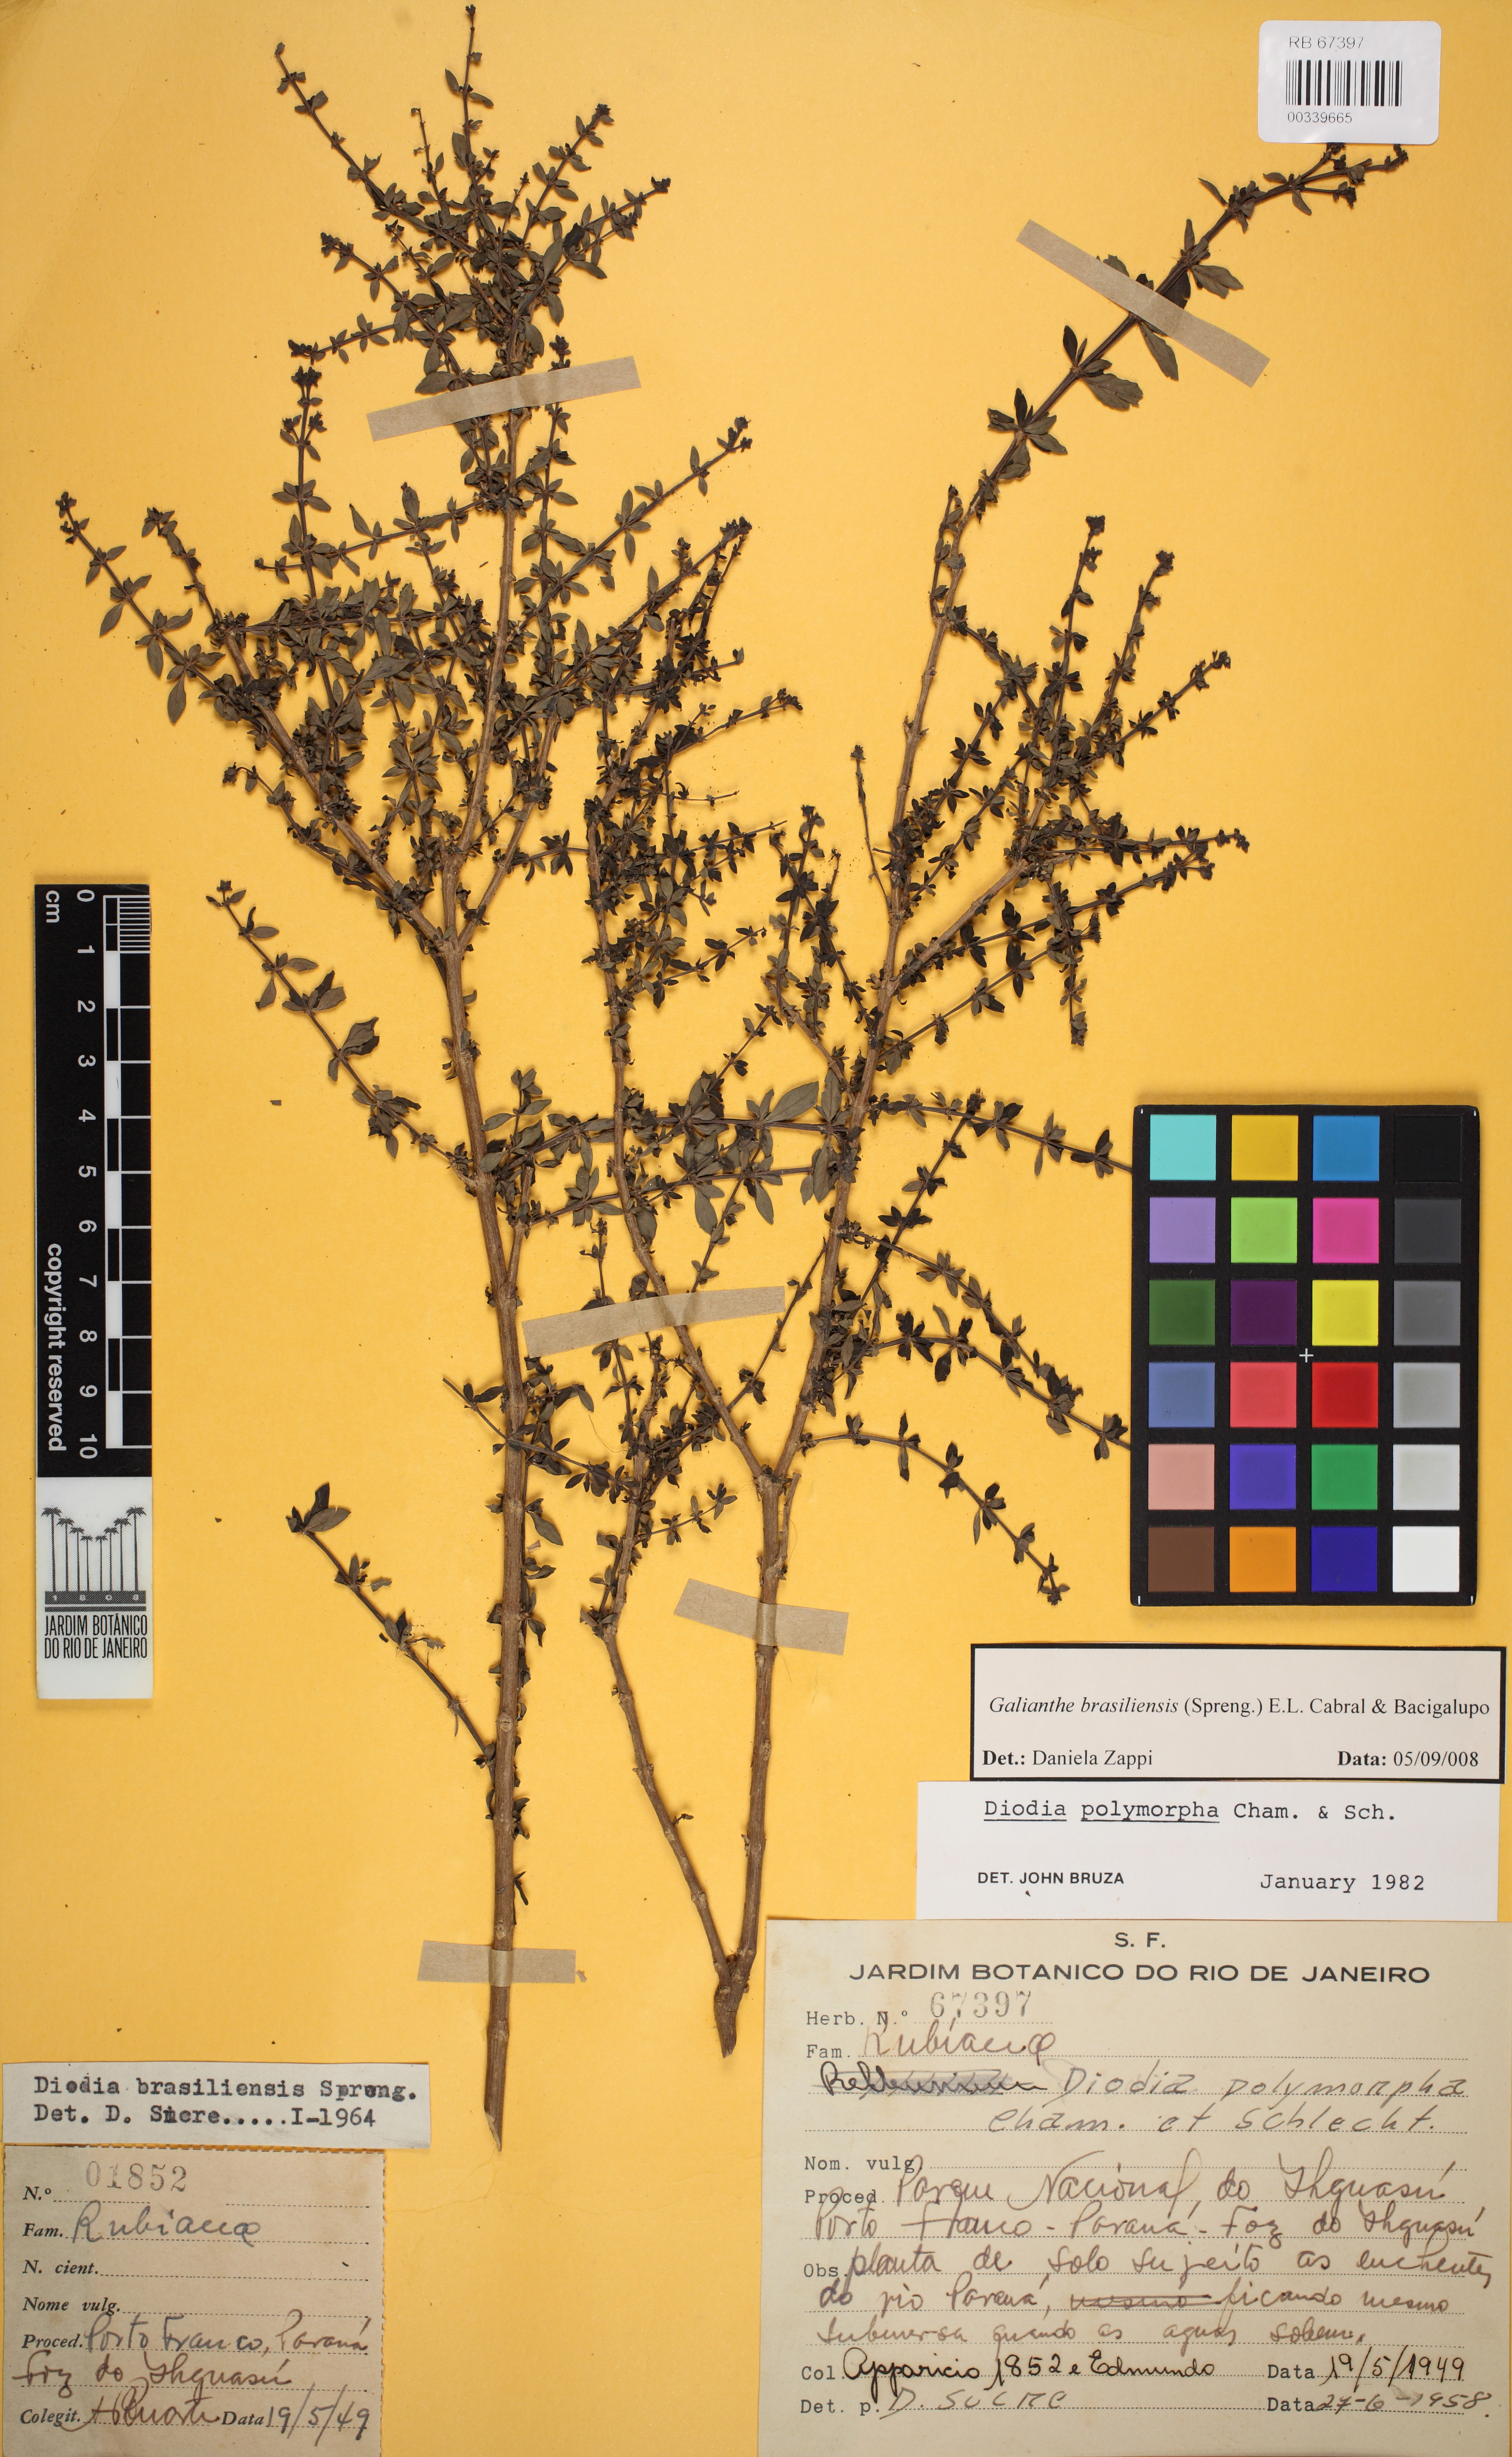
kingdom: Plantae
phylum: Tracheophyta
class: Magnoliopsida
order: Gentianales
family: Rubiaceae
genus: Galianthe
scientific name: Galianthe brasiliensis
